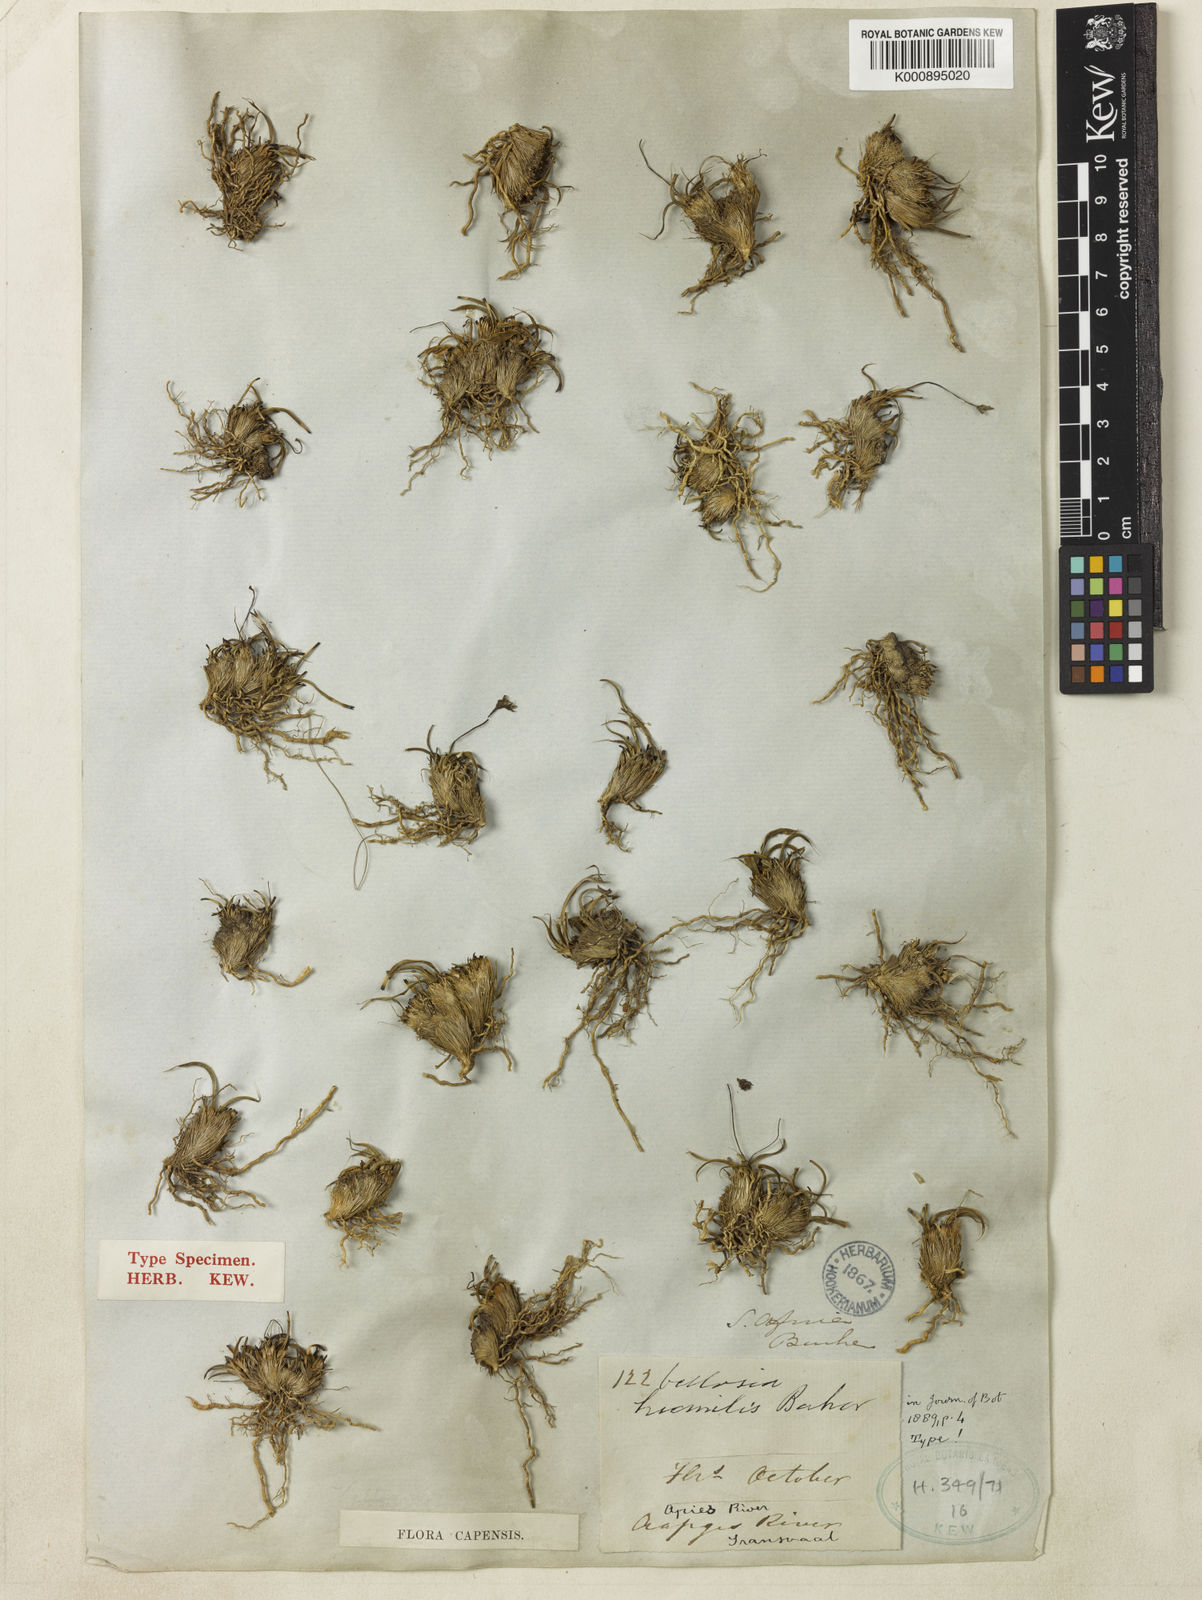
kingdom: Plantae
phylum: Tracheophyta
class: Liliopsida
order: Pandanales
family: Velloziaceae
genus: Xerophyta
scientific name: Xerophyta humilis
